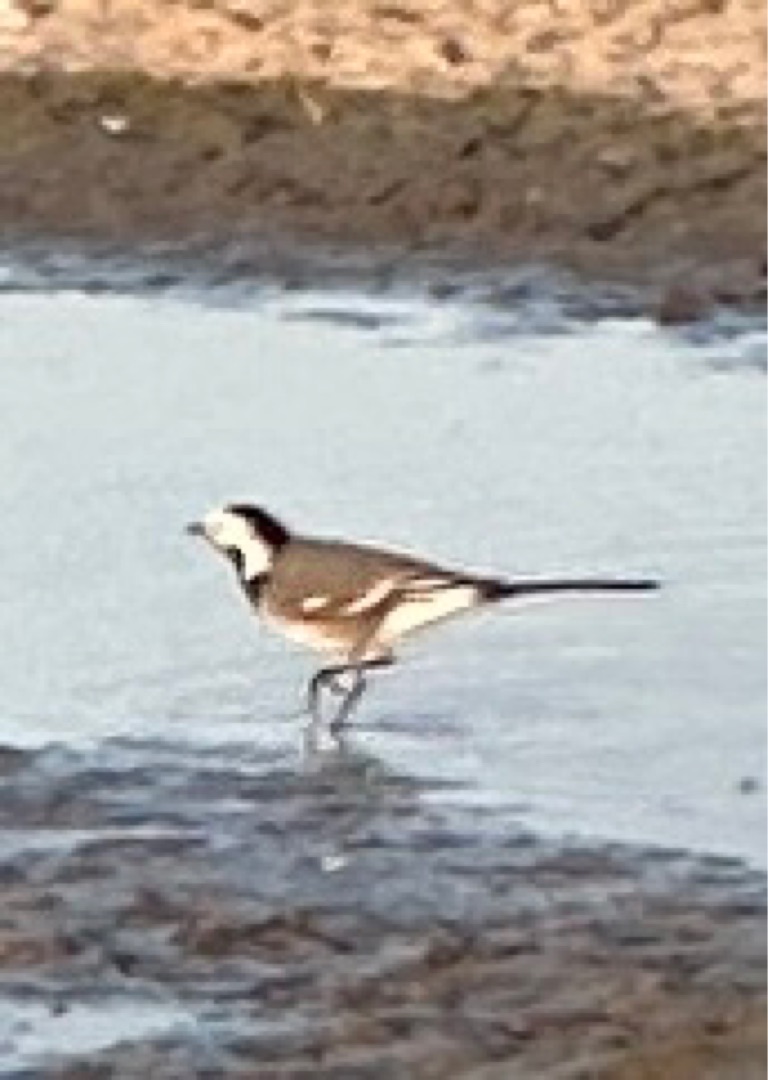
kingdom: Animalia
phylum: Chordata
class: Aves
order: Passeriformes
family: Motacillidae
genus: Motacilla
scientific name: Motacilla alba
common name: Hvid vipstjert
